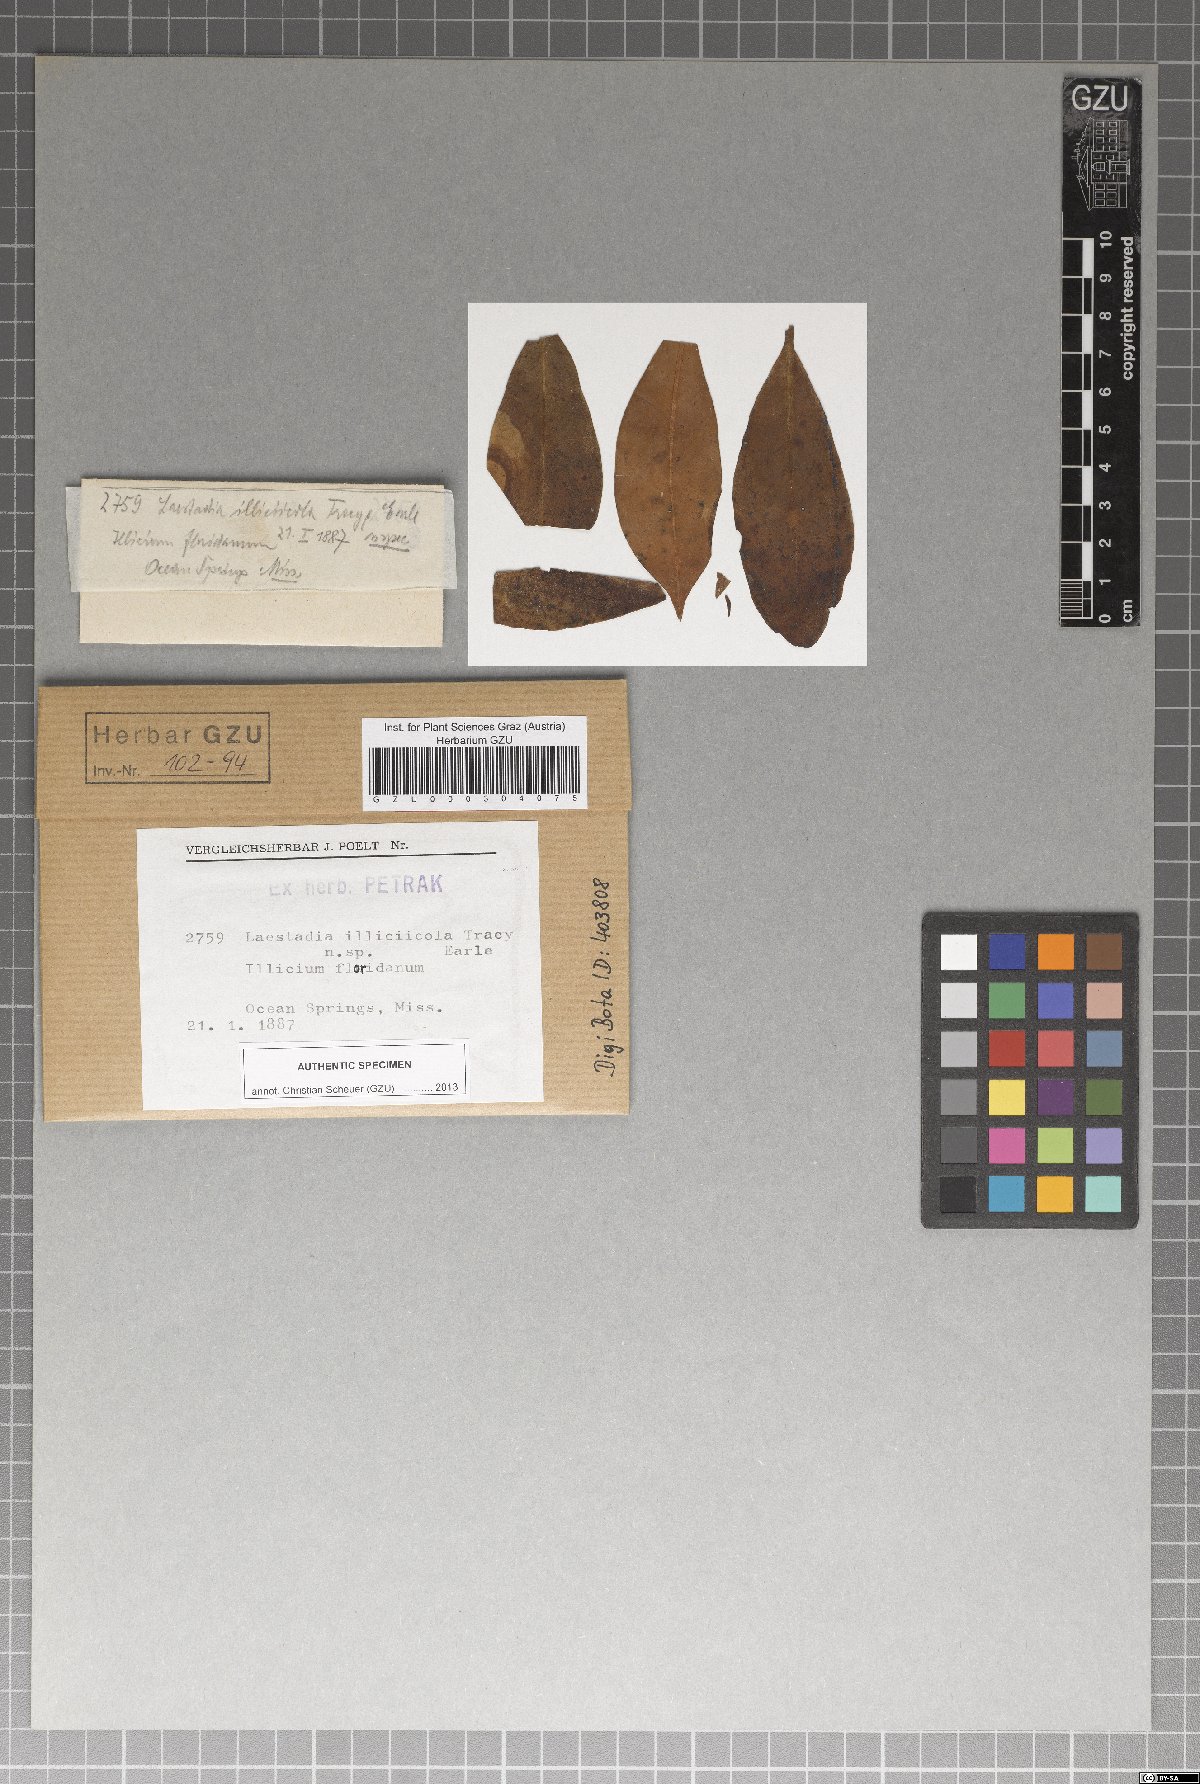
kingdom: Fungi
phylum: Ascomycota
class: Sordariomycetes
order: Diaporthales
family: Gnomoniaceae
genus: Laestadia
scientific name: Laestadia
